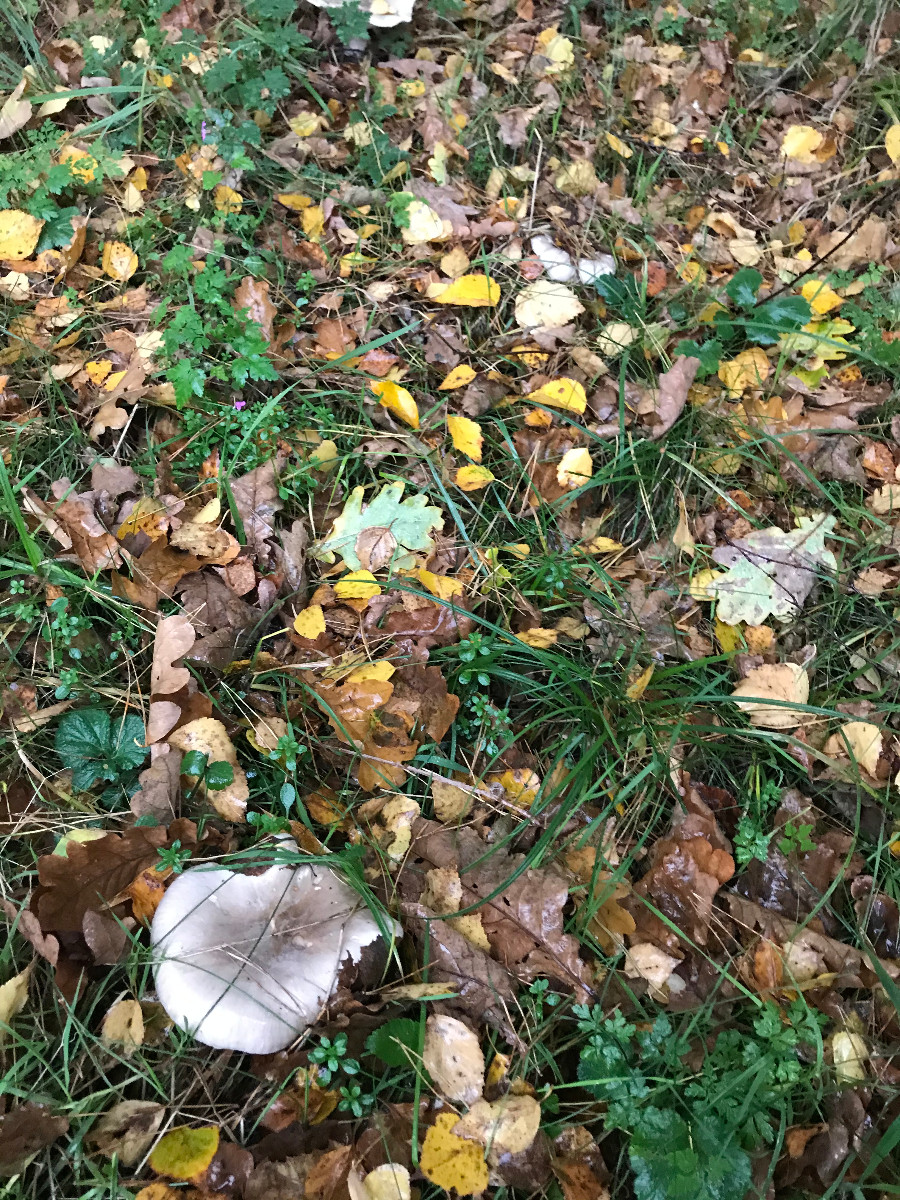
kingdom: Fungi
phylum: Basidiomycota
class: Agaricomycetes
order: Agaricales
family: Tricholomataceae
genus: Clitocybe
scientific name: Clitocybe nebularis
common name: tåge-tragthat
